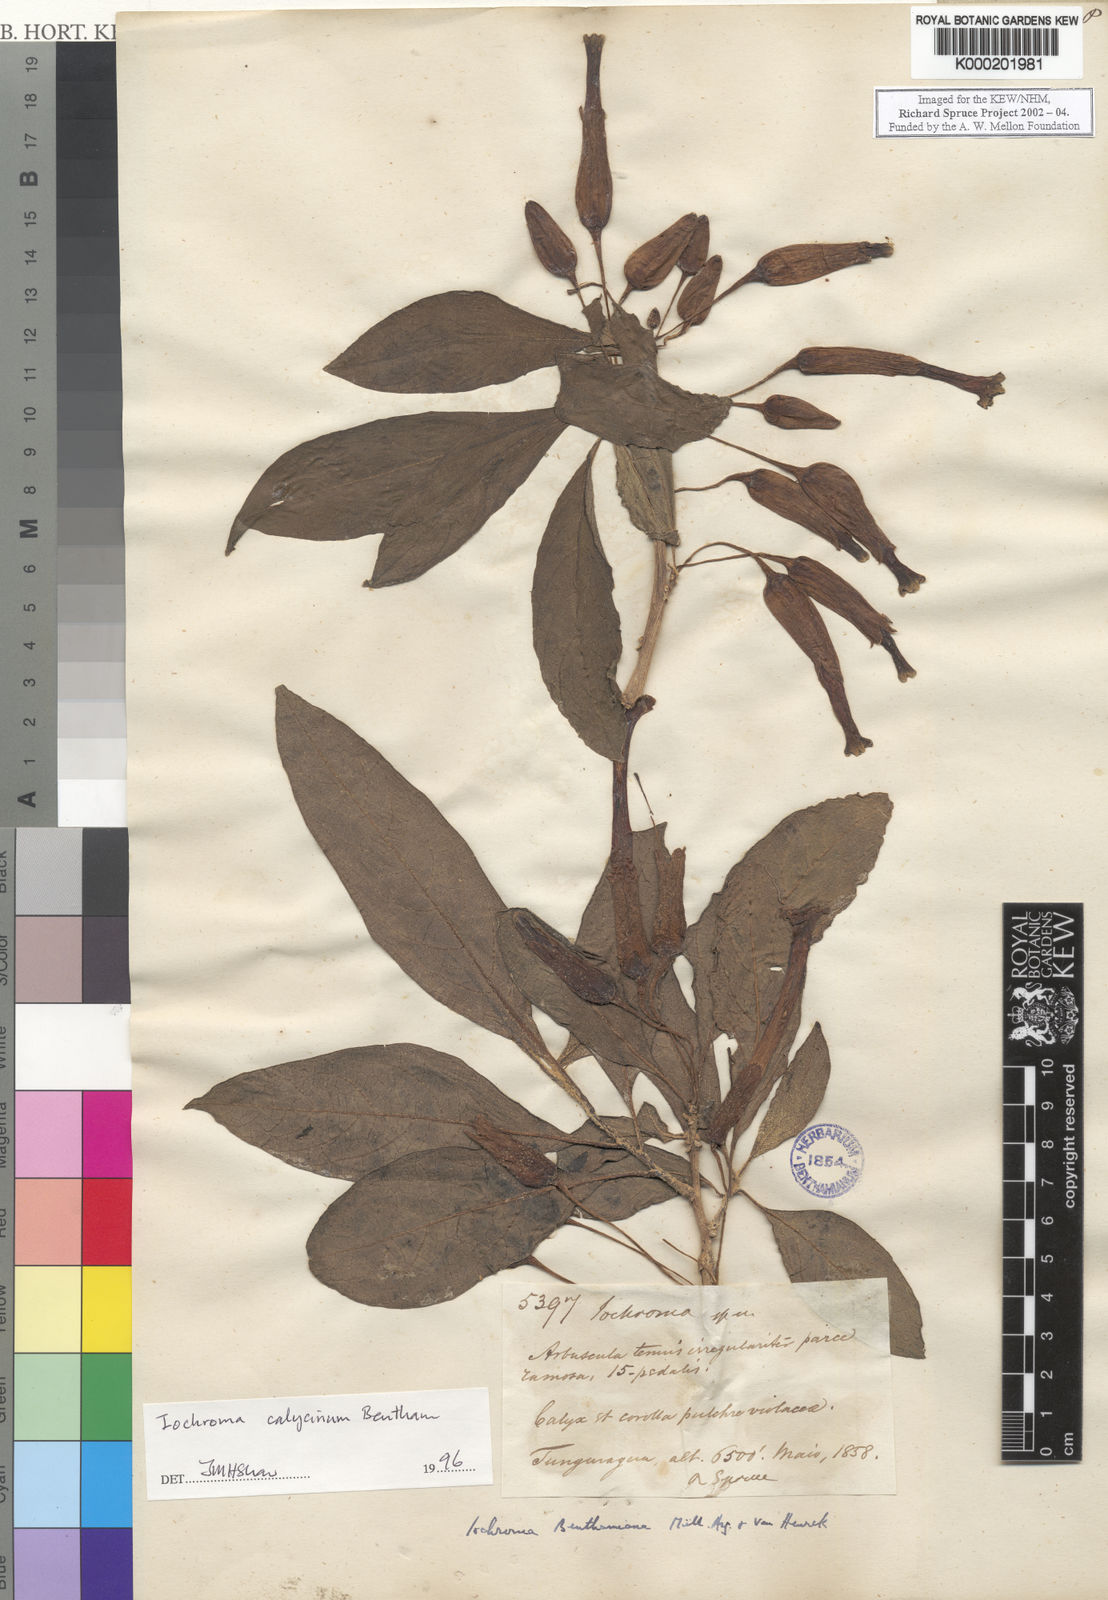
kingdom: Plantae
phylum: Tracheophyta
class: Magnoliopsida
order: Solanales
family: Solanaceae
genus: Iochroma
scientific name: Iochroma calycinum
